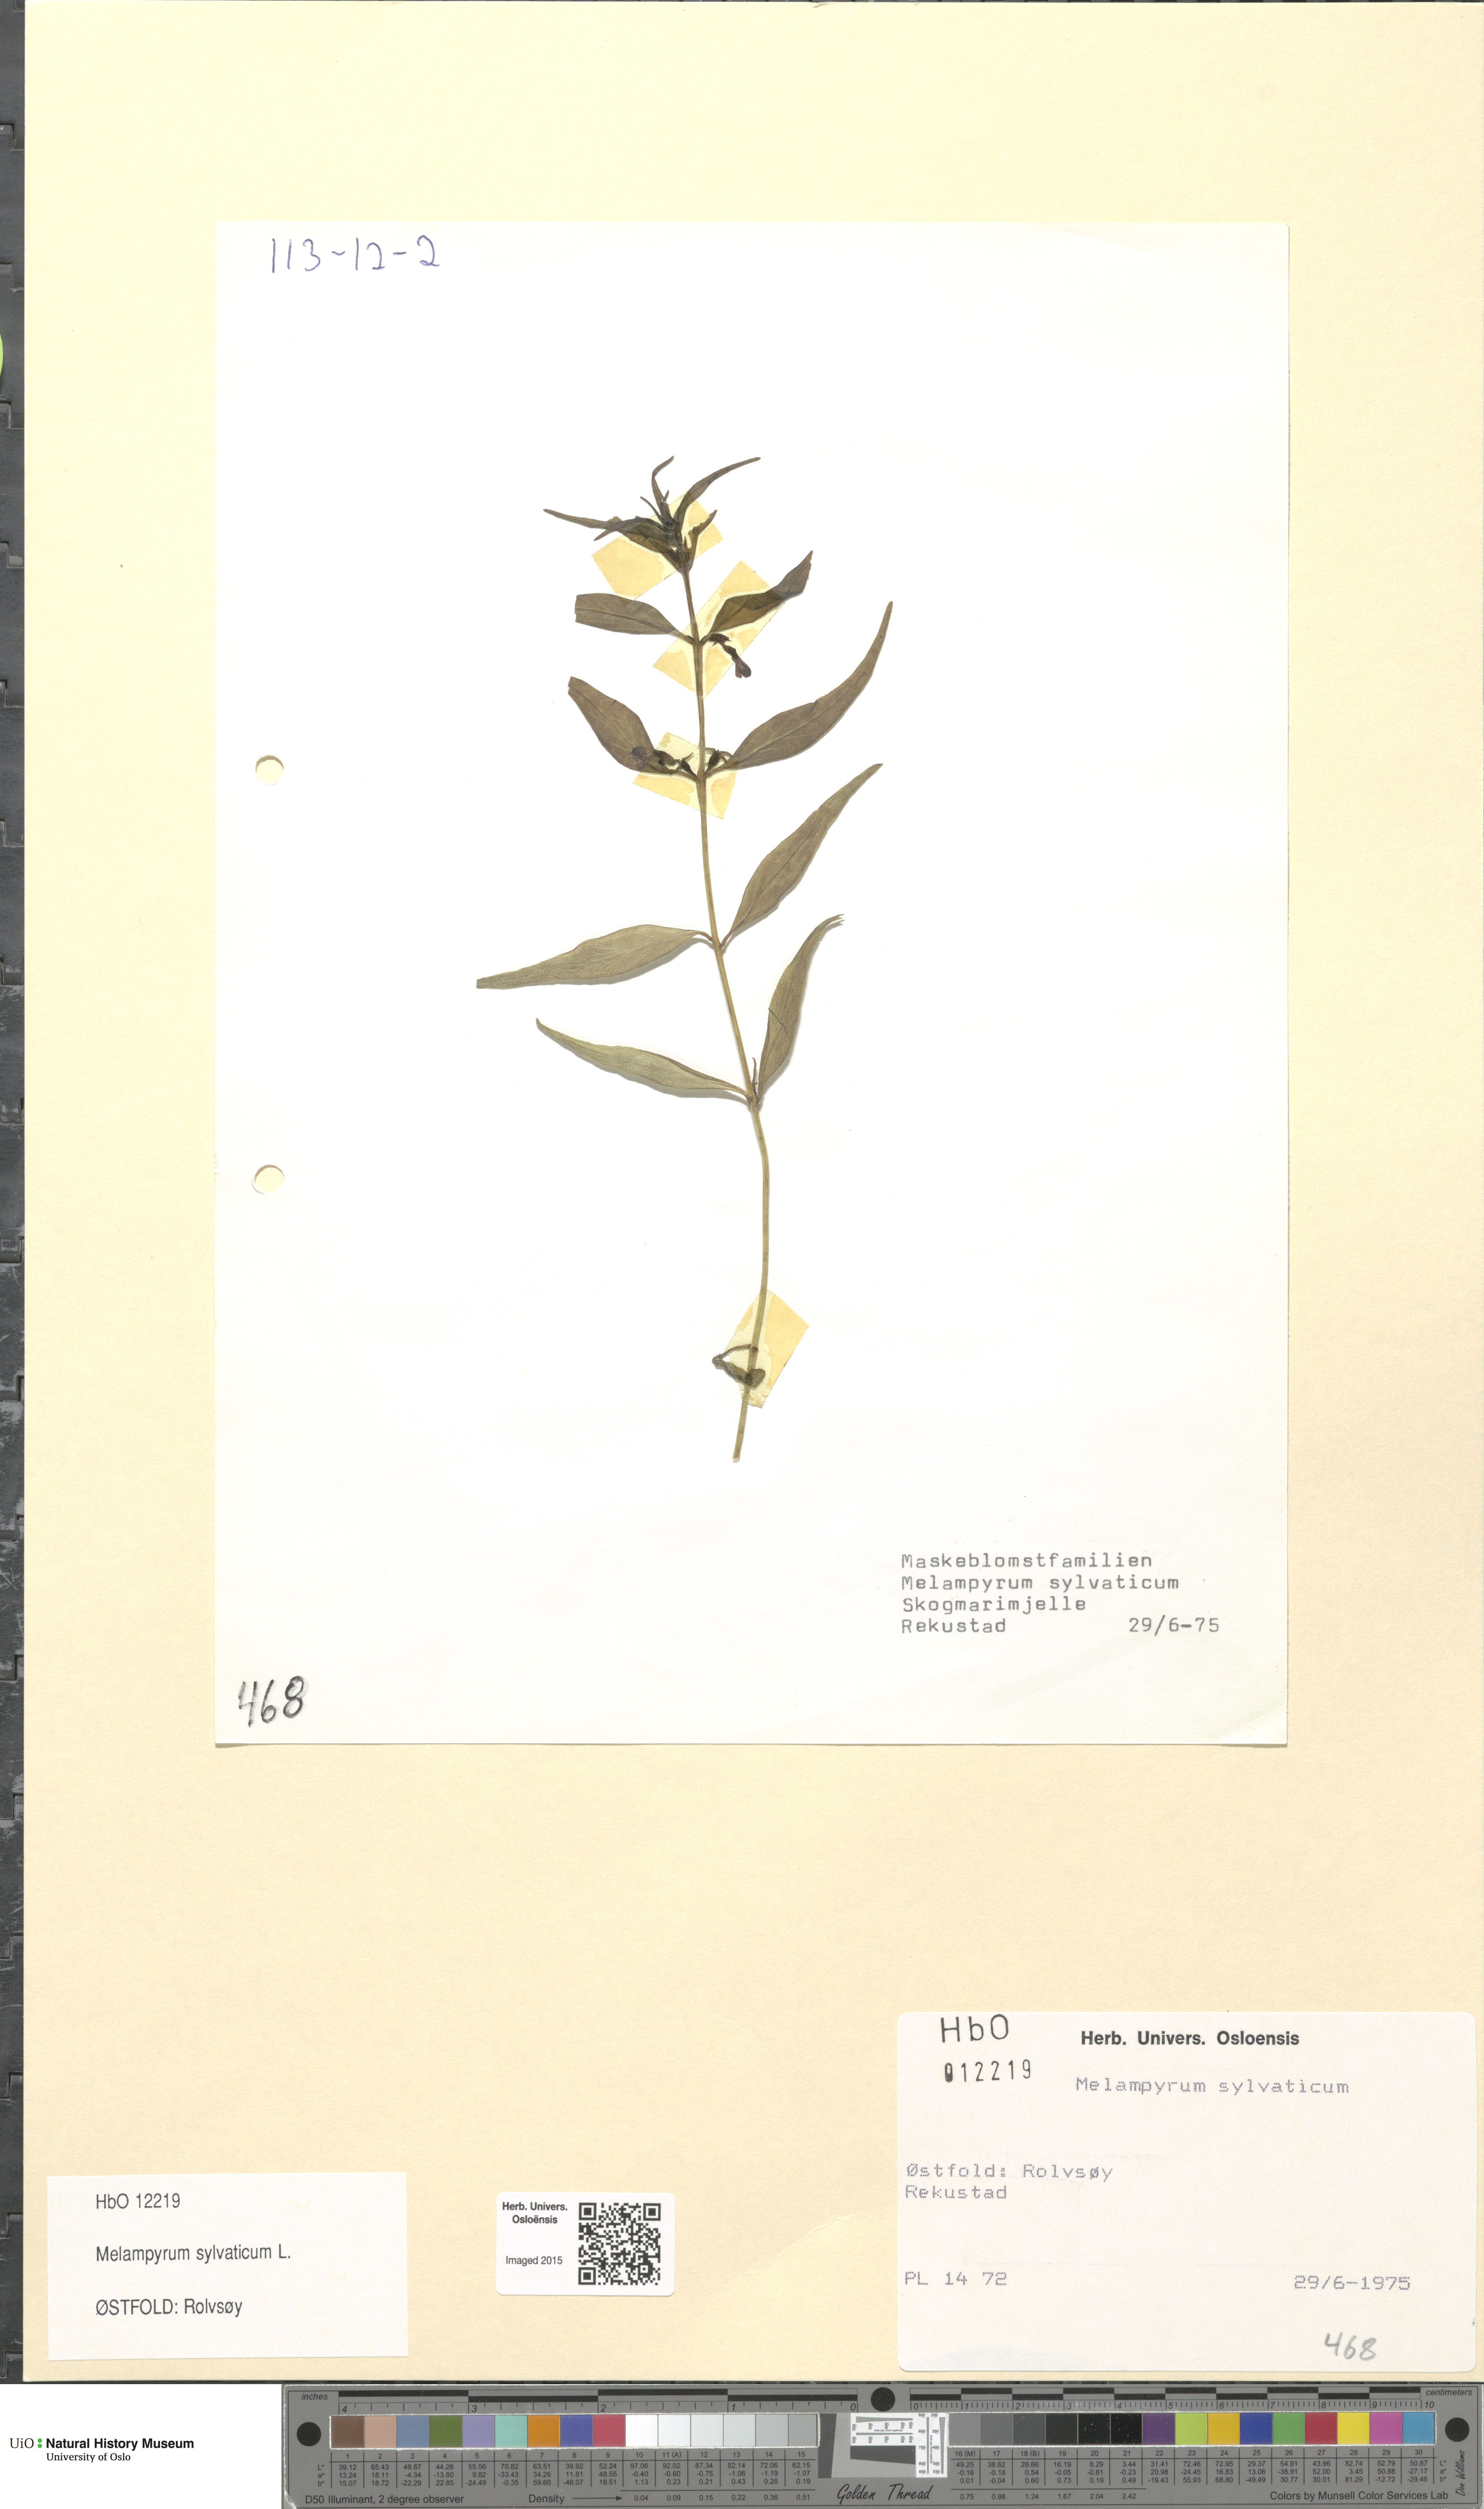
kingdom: Plantae
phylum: Tracheophyta
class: Magnoliopsida
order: Lamiales
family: Orobanchaceae
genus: Melampyrum
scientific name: Melampyrum sylvaticum
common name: Small cow-wheat
